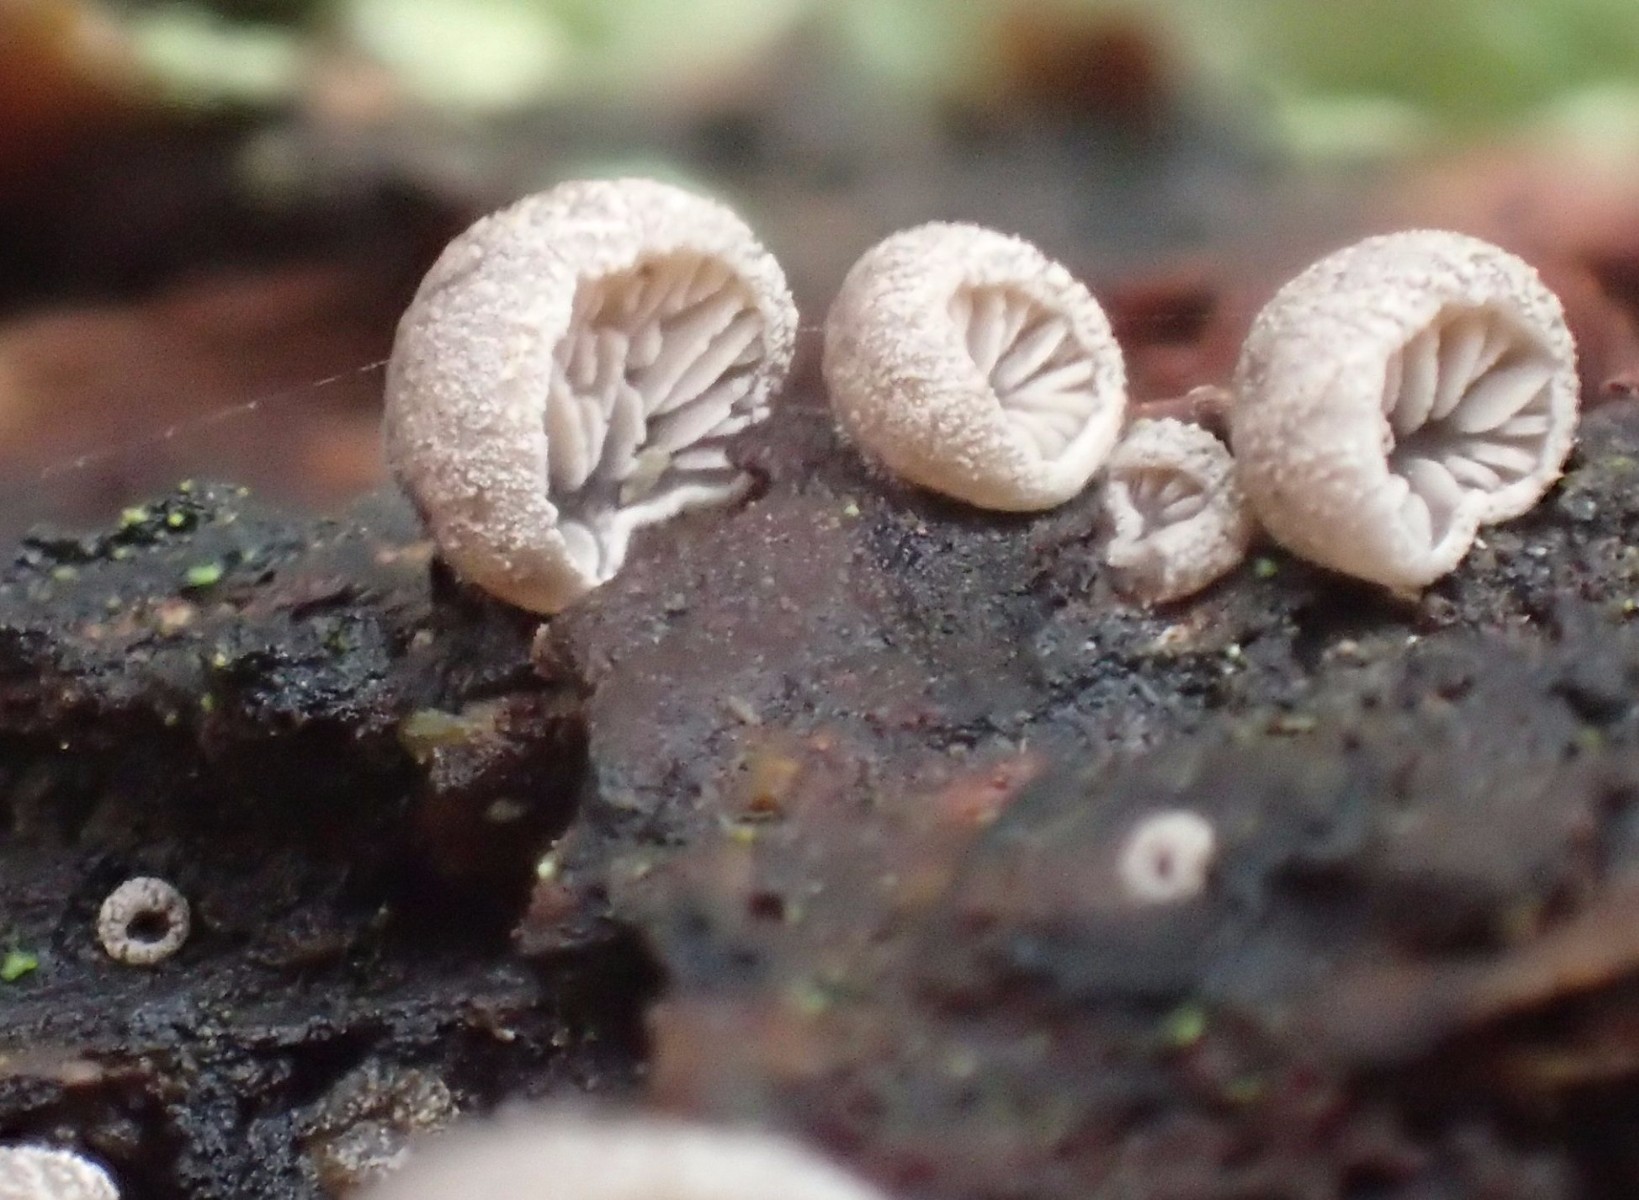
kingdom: Fungi
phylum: Basidiomycota
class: Agaricomycetes
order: Agaricales
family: Pleurotaceae
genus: Resupinatus
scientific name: Resupinatus
